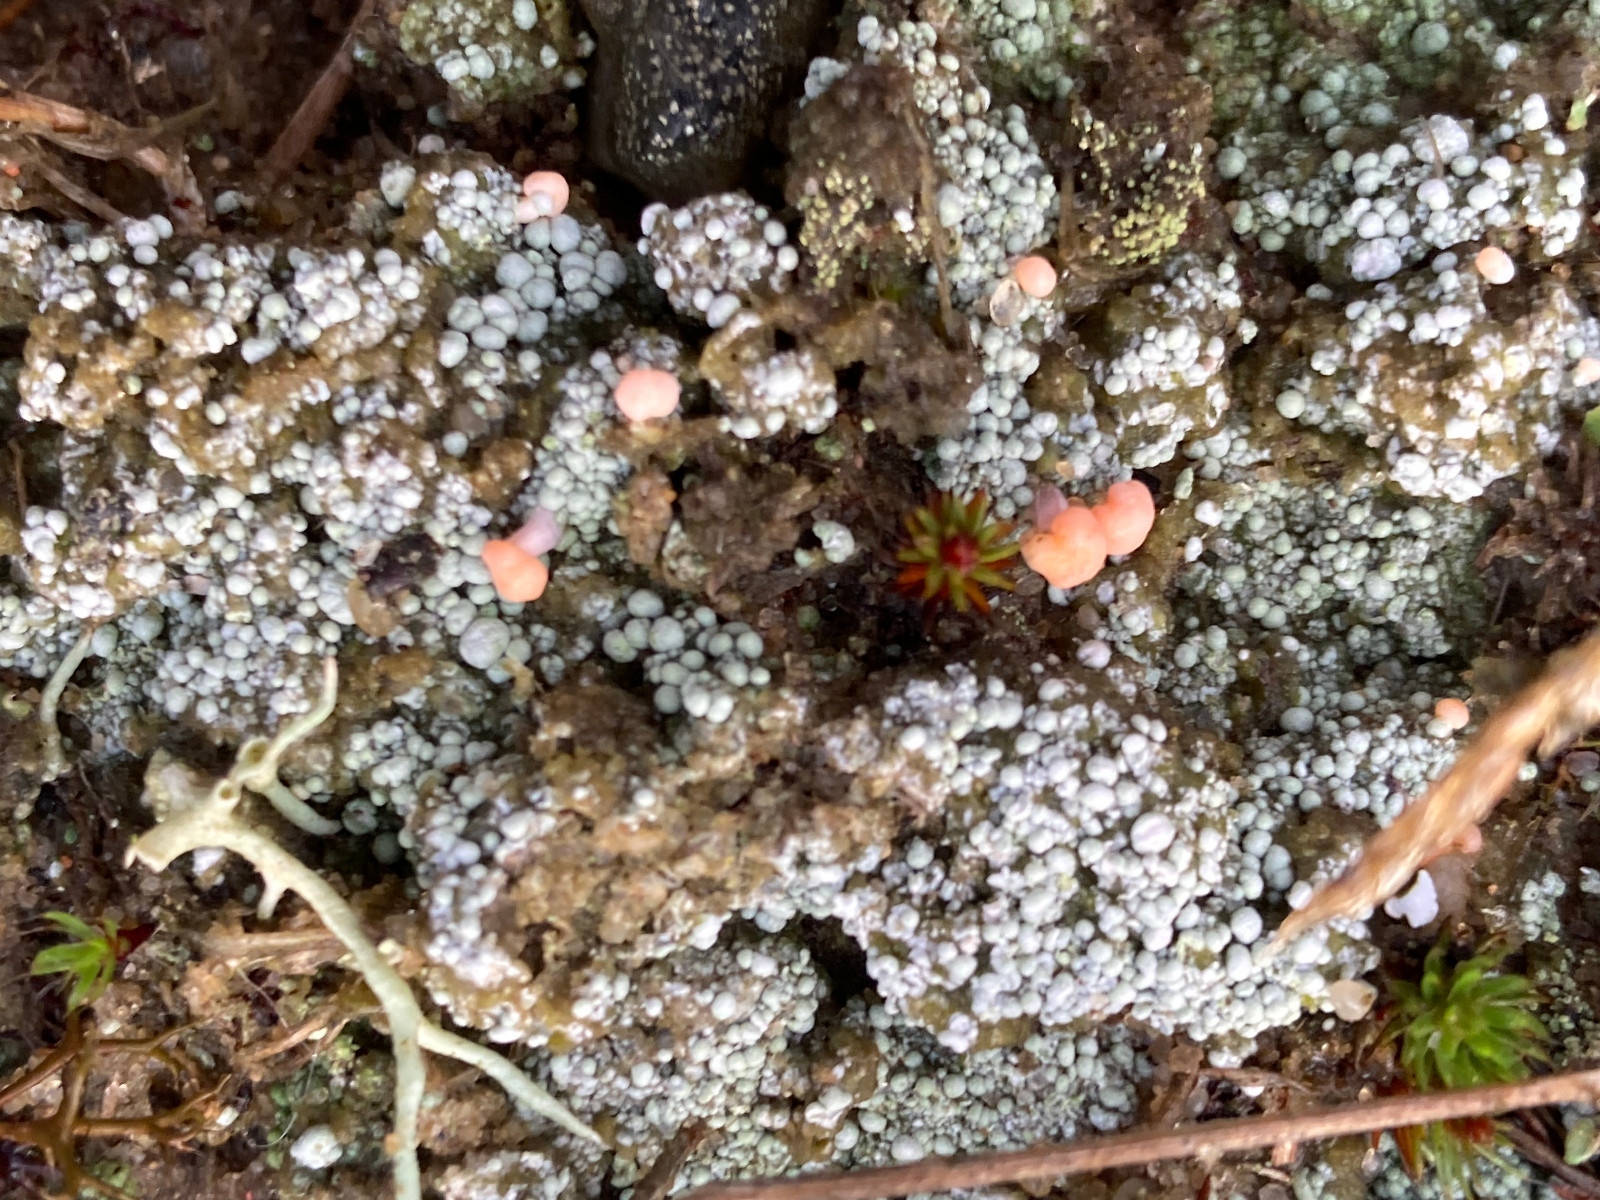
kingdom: Fungi
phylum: Ascomycota
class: Lecanoromycetes
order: Pertusariales
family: Icmadophilaceae
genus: Dibaeis
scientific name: Dibaeis baeomyces
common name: rosenrød stilav
